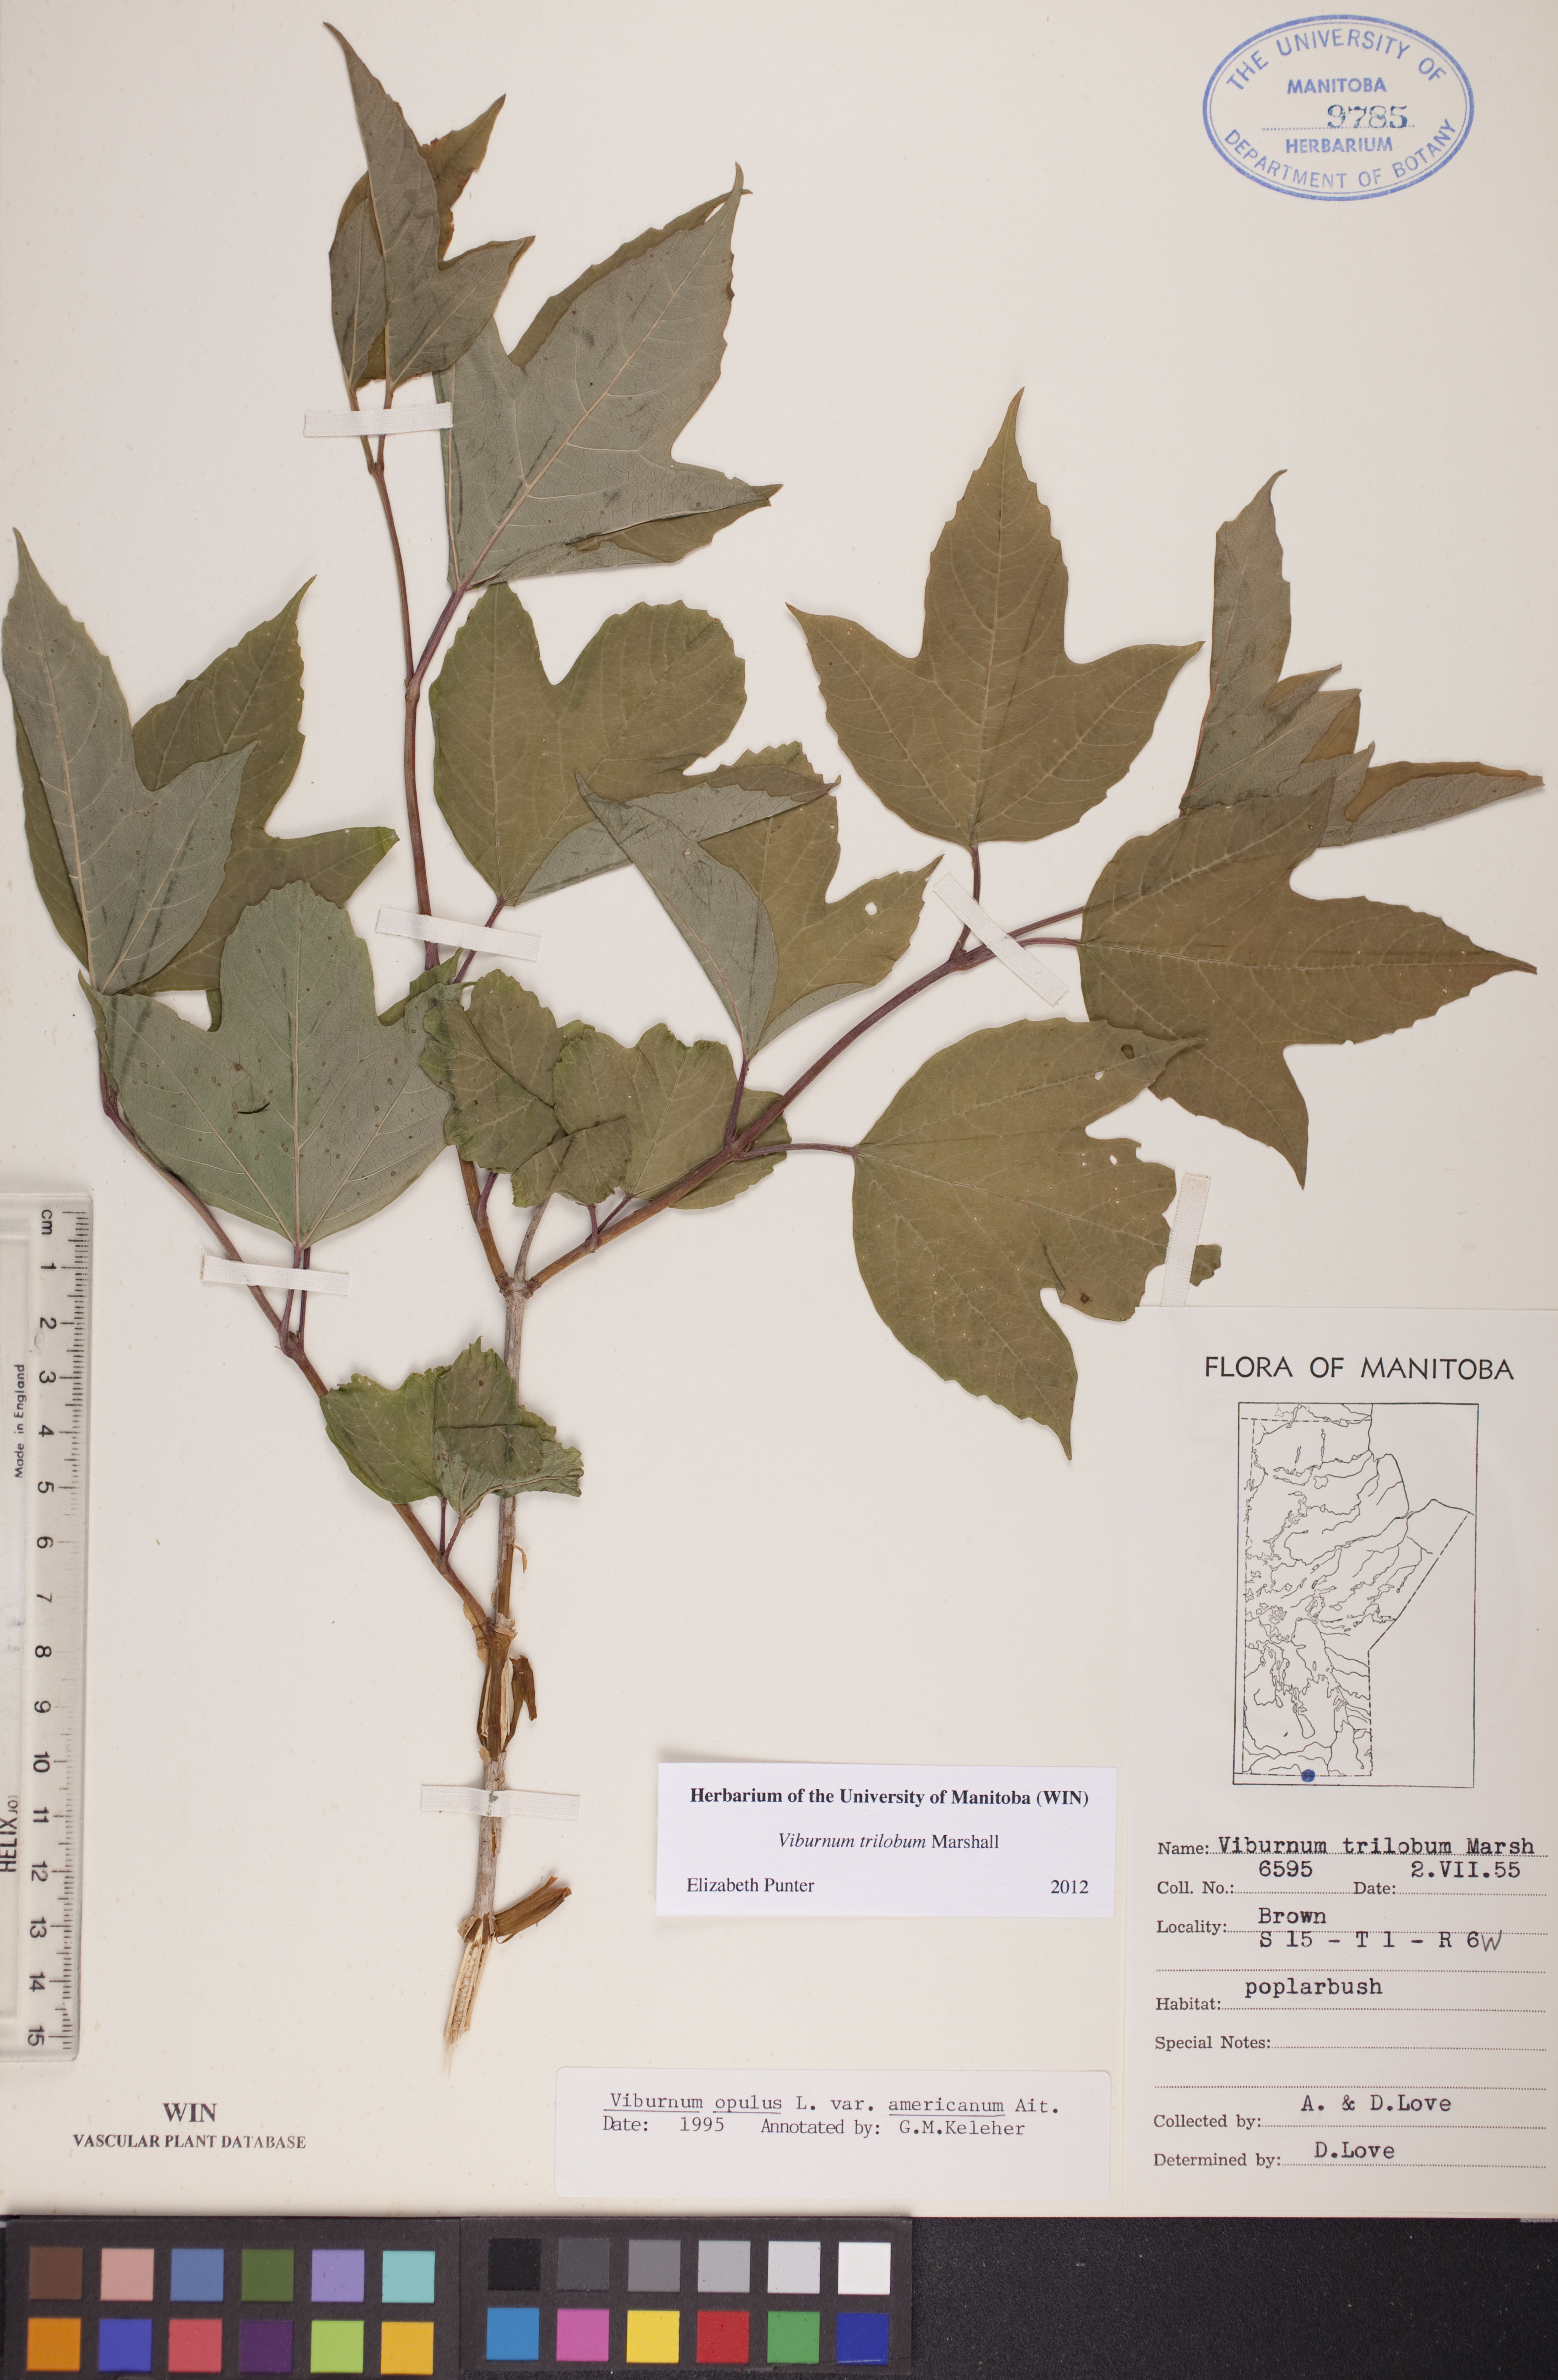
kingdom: Plantae
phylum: Tracheophyta
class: Magnoliopsida
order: Dipsacales
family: Viburnaceae
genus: Viburnum
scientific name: Viburnum trilobum
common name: American cranberrybush
